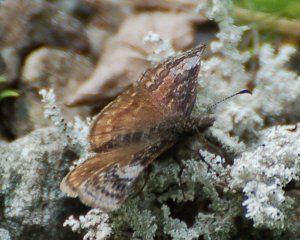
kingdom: Animalia
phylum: Arthropoda
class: Insecta
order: Lepidoptera
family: Hesperiidae
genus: Erynnis
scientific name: Erynnis icelus
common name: Dreamy Duskywing
